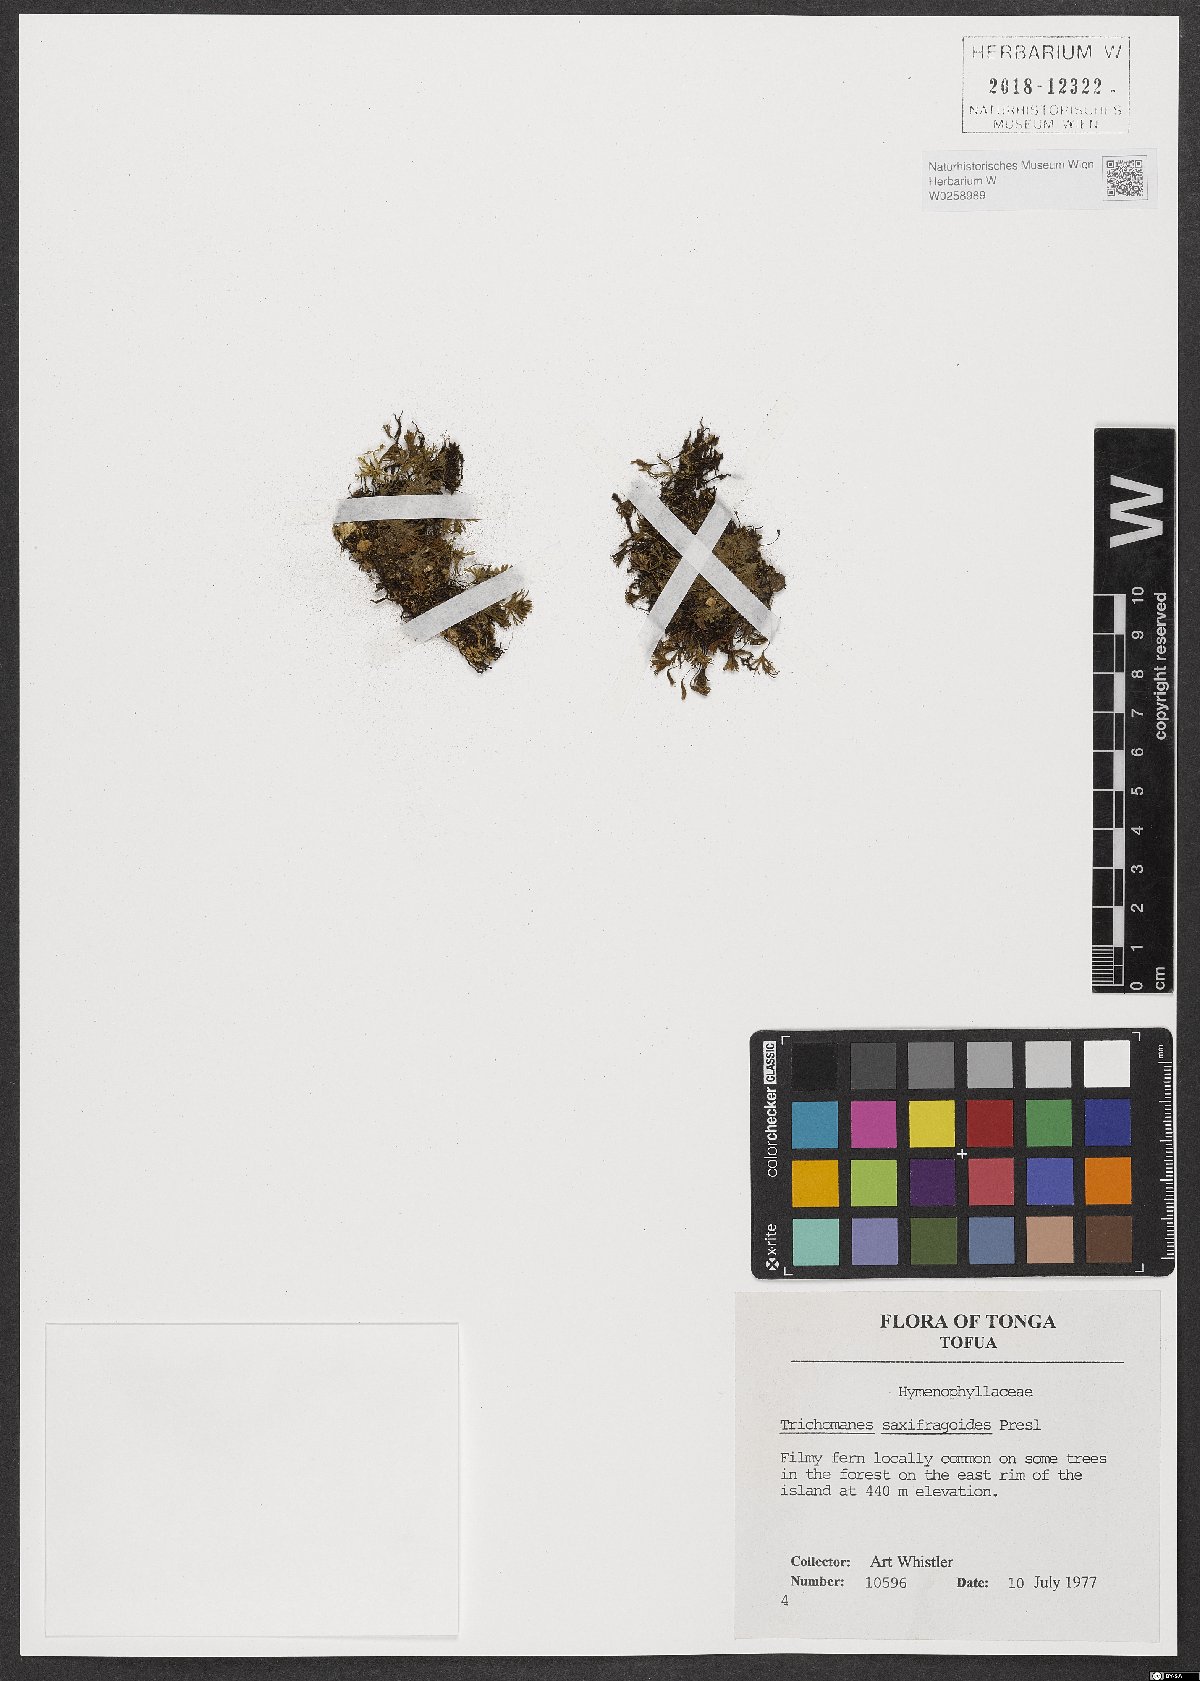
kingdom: Plantae
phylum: Tracheophyta
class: Polypodiopsida
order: Hymenophyllales
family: Hymenophyllaceae
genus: Crepidomanes
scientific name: Crepidomanes saxifragoides
